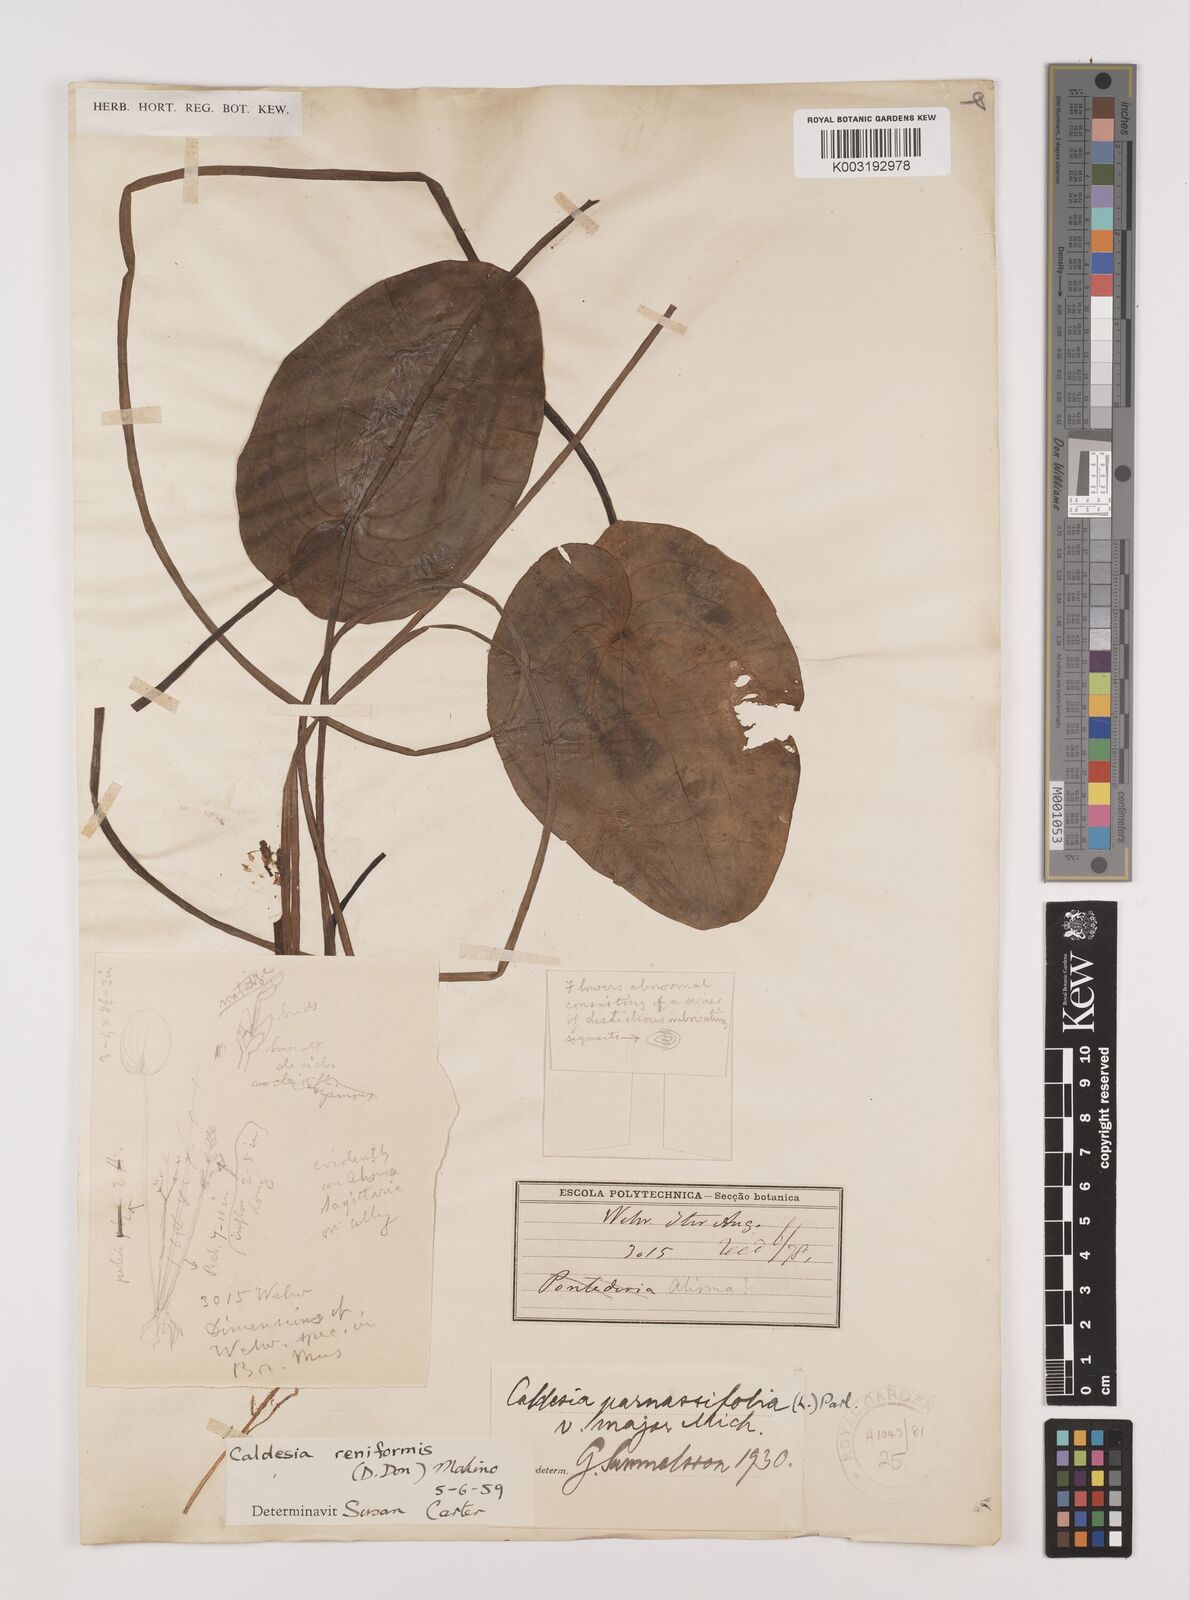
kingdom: Plantae
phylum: Tracheophyta
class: Liliopsida
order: Alismatales
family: Alismataceae
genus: Caldesia
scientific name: Caldesia parnassifolia
